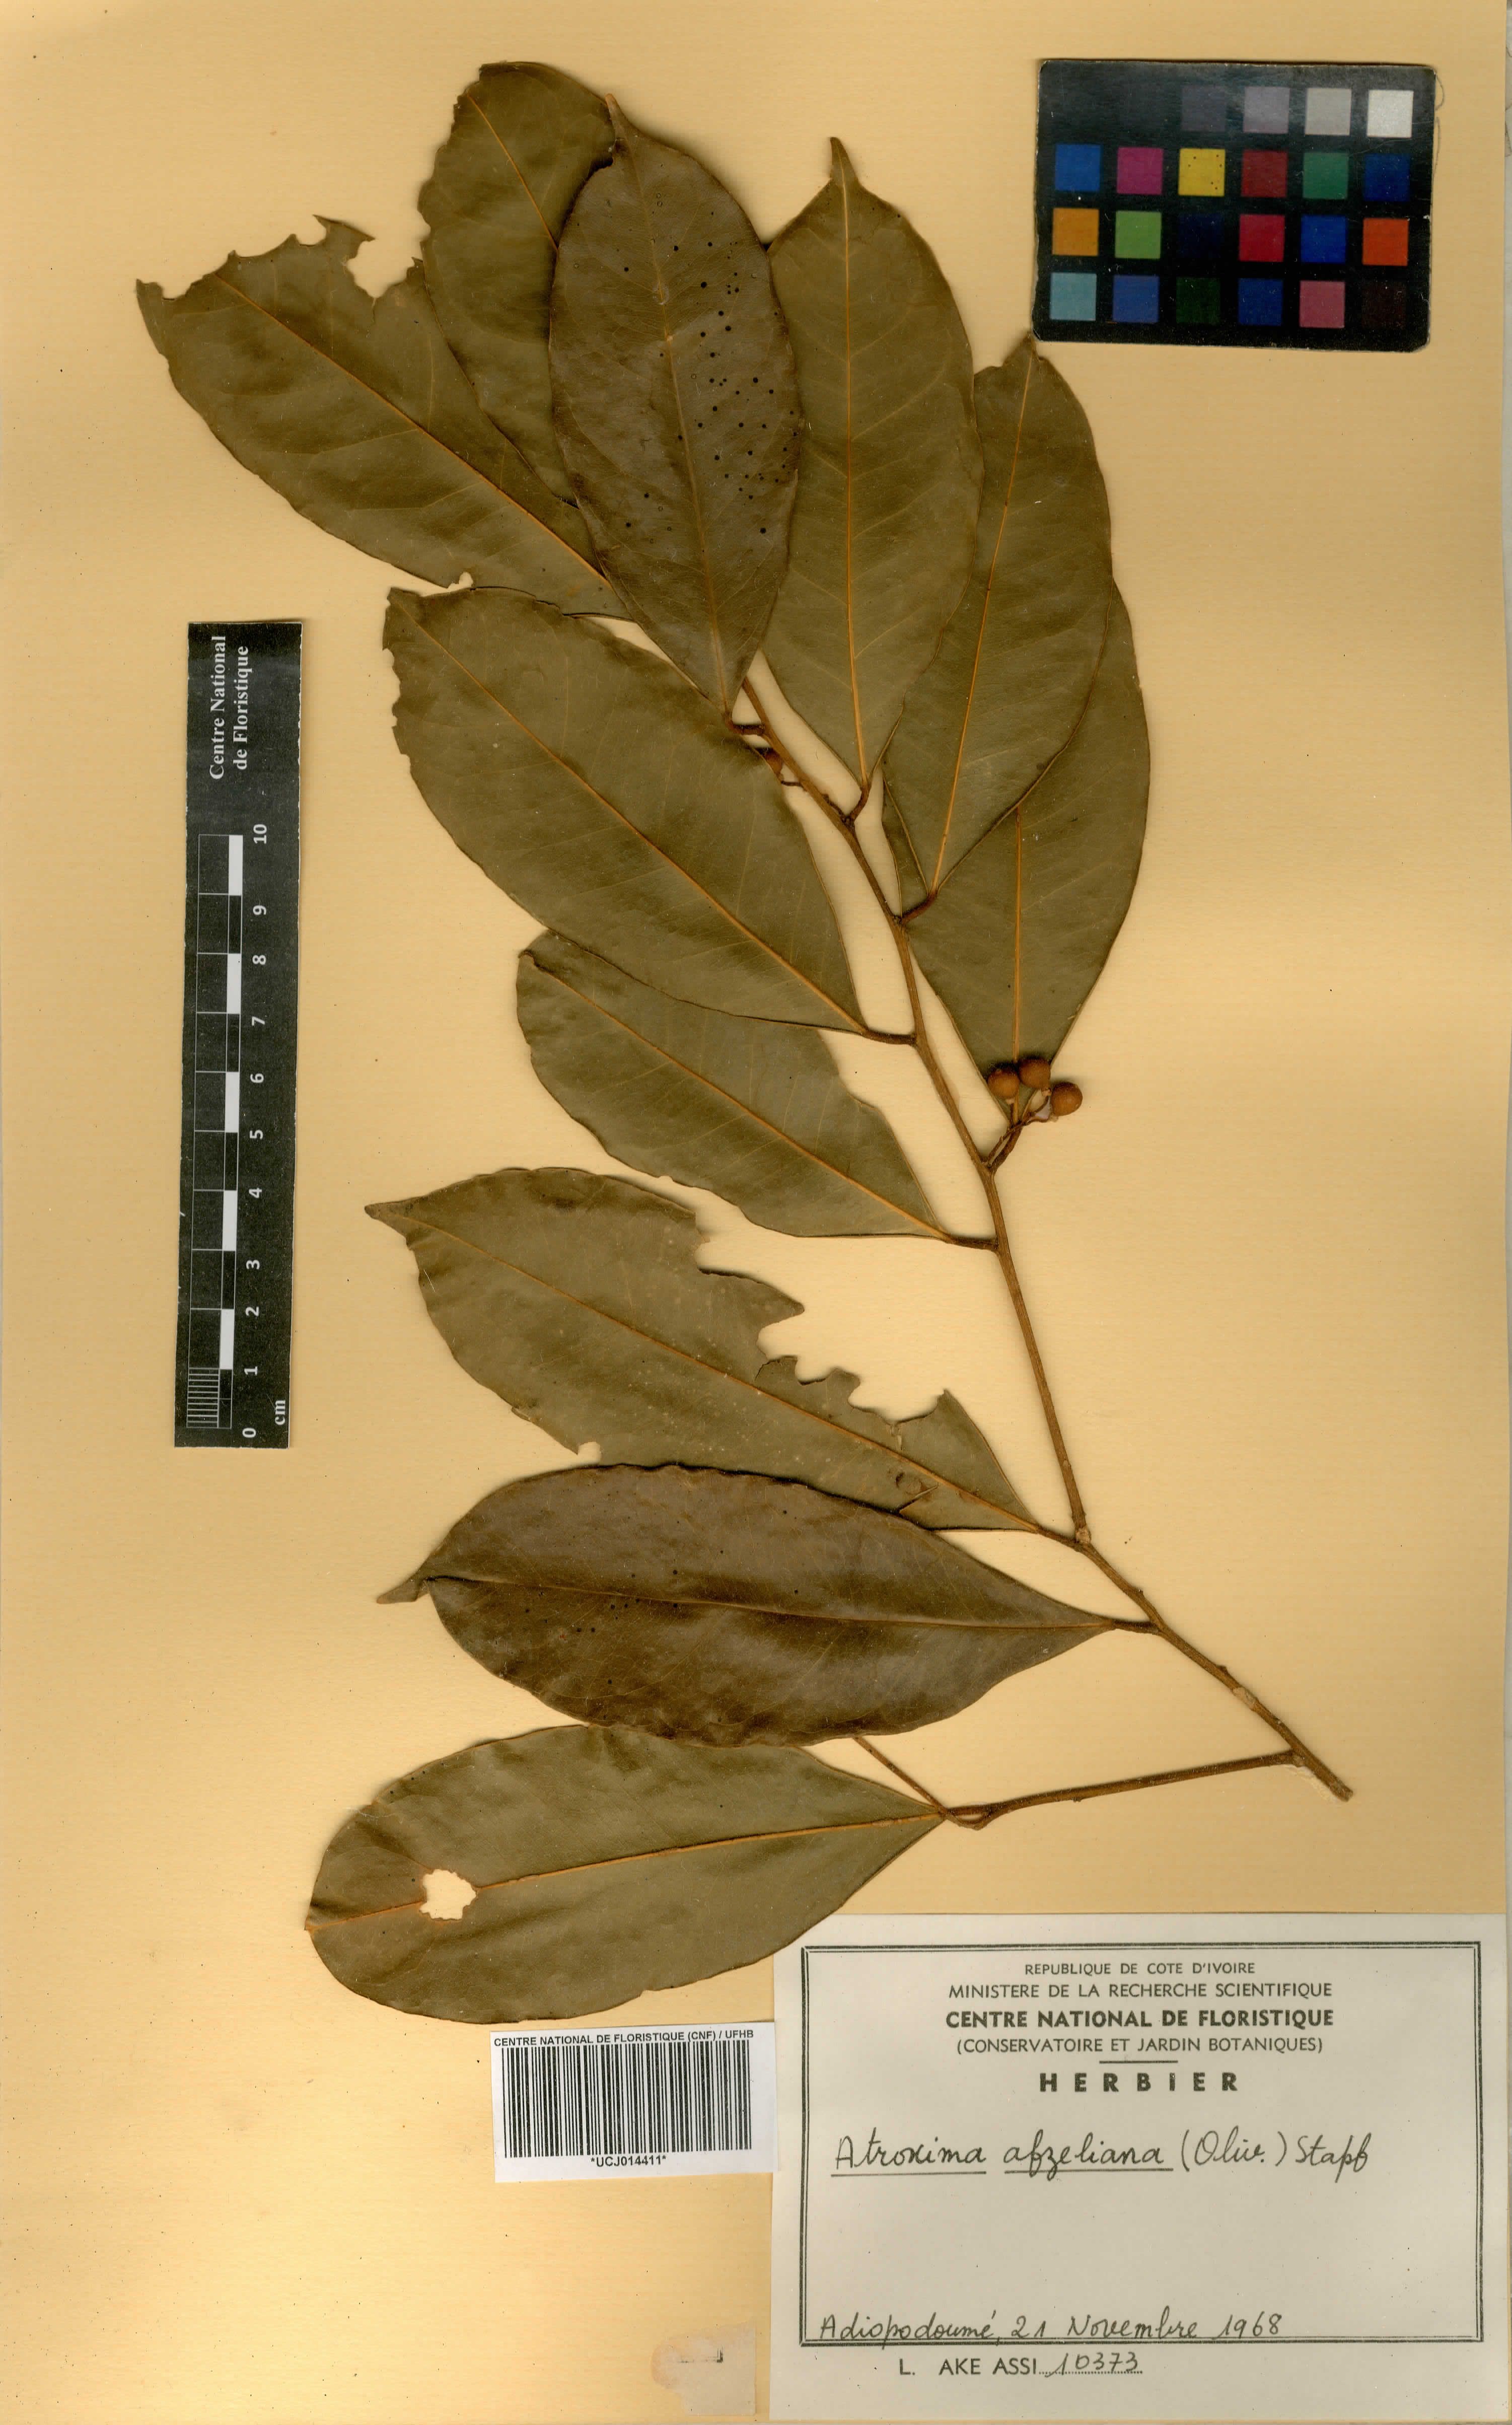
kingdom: Plantae
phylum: Tracheophyta
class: Magnoliopsida
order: Fabales
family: Polygalaceae
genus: Atroxima
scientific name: Atroxima afzeliana
